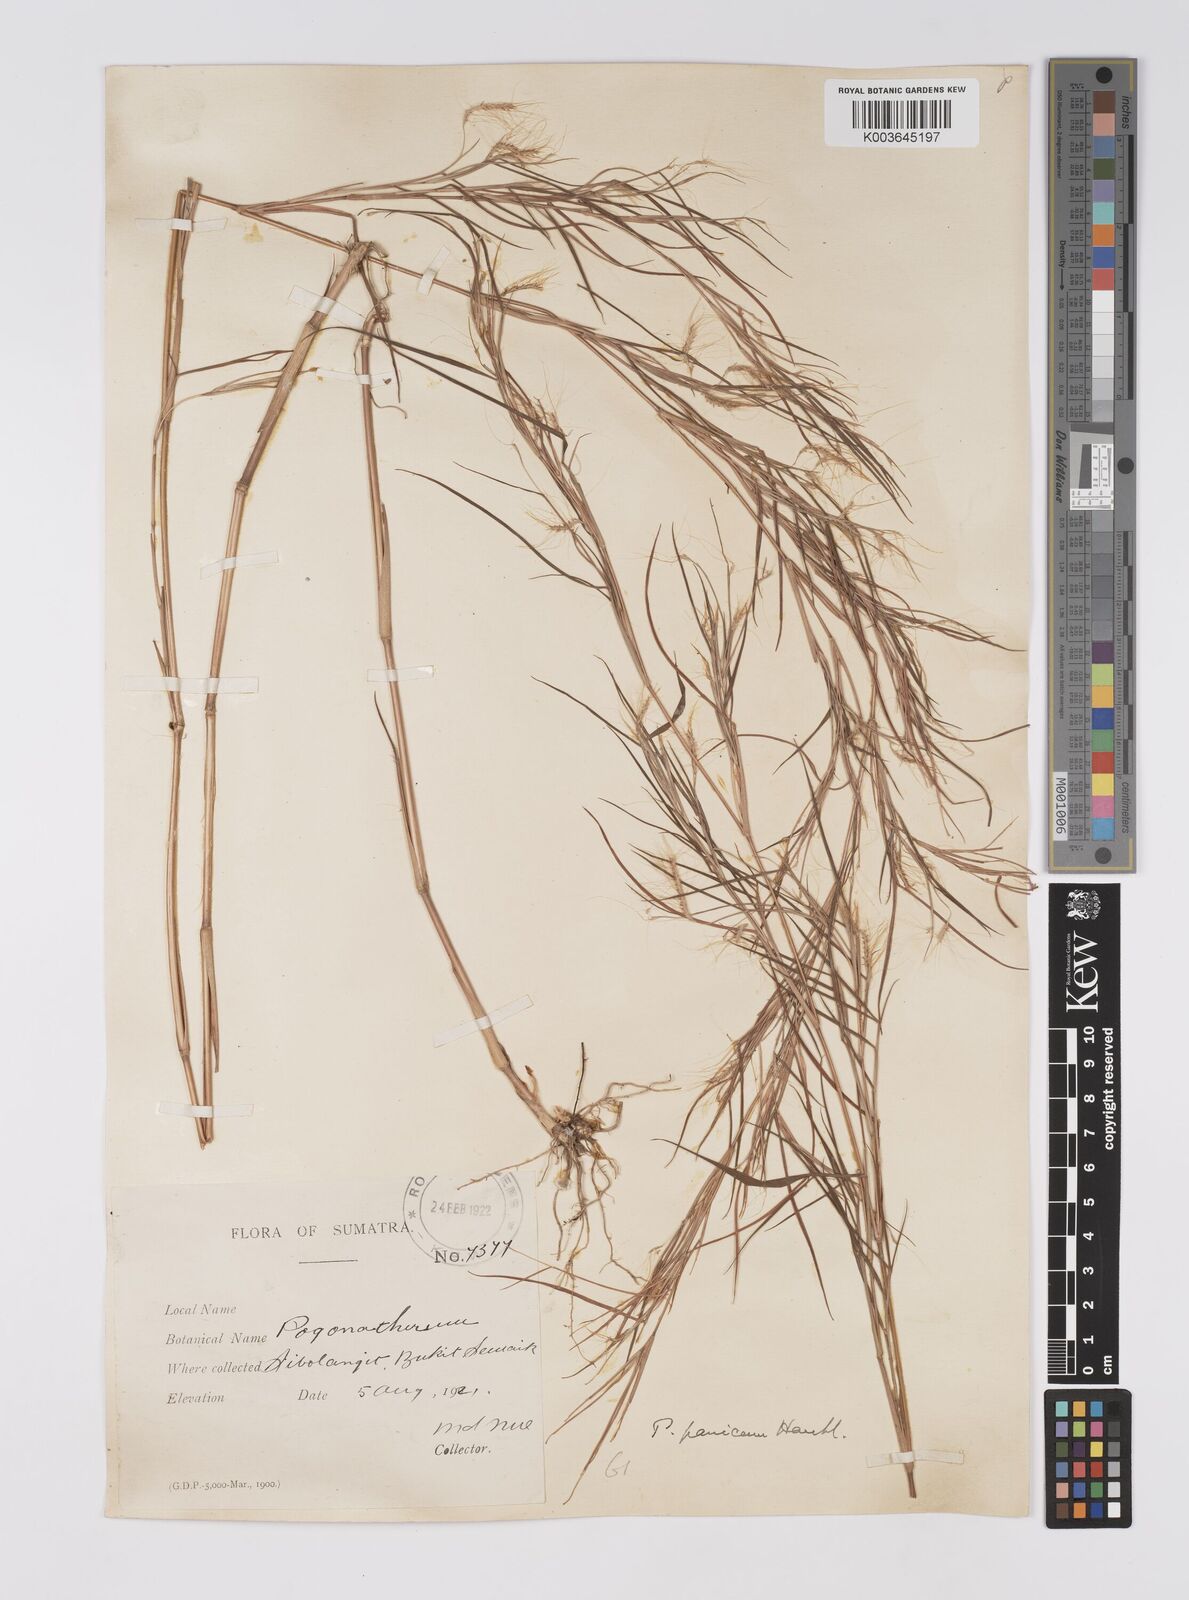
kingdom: Plantae
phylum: Tracheophyta
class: Liliopsida
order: Poales
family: Poaceae
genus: Pogonatherum
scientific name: Pogonatherum paniceum
